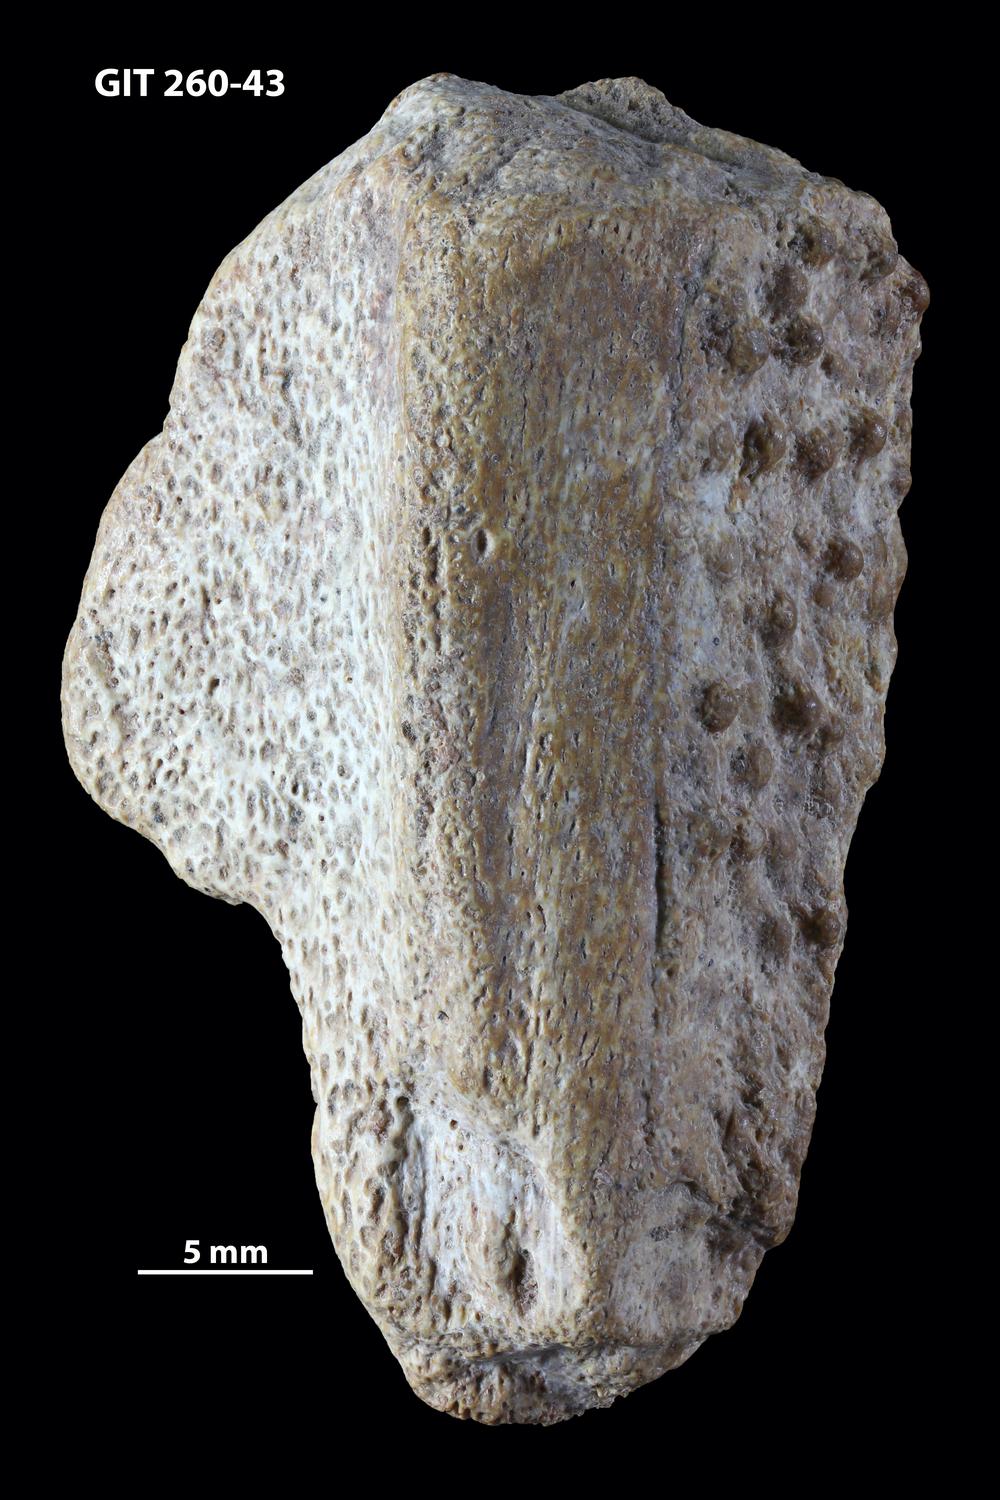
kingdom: Animalia
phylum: Chordata
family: Homostiidae
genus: Homostius
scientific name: Homostius
